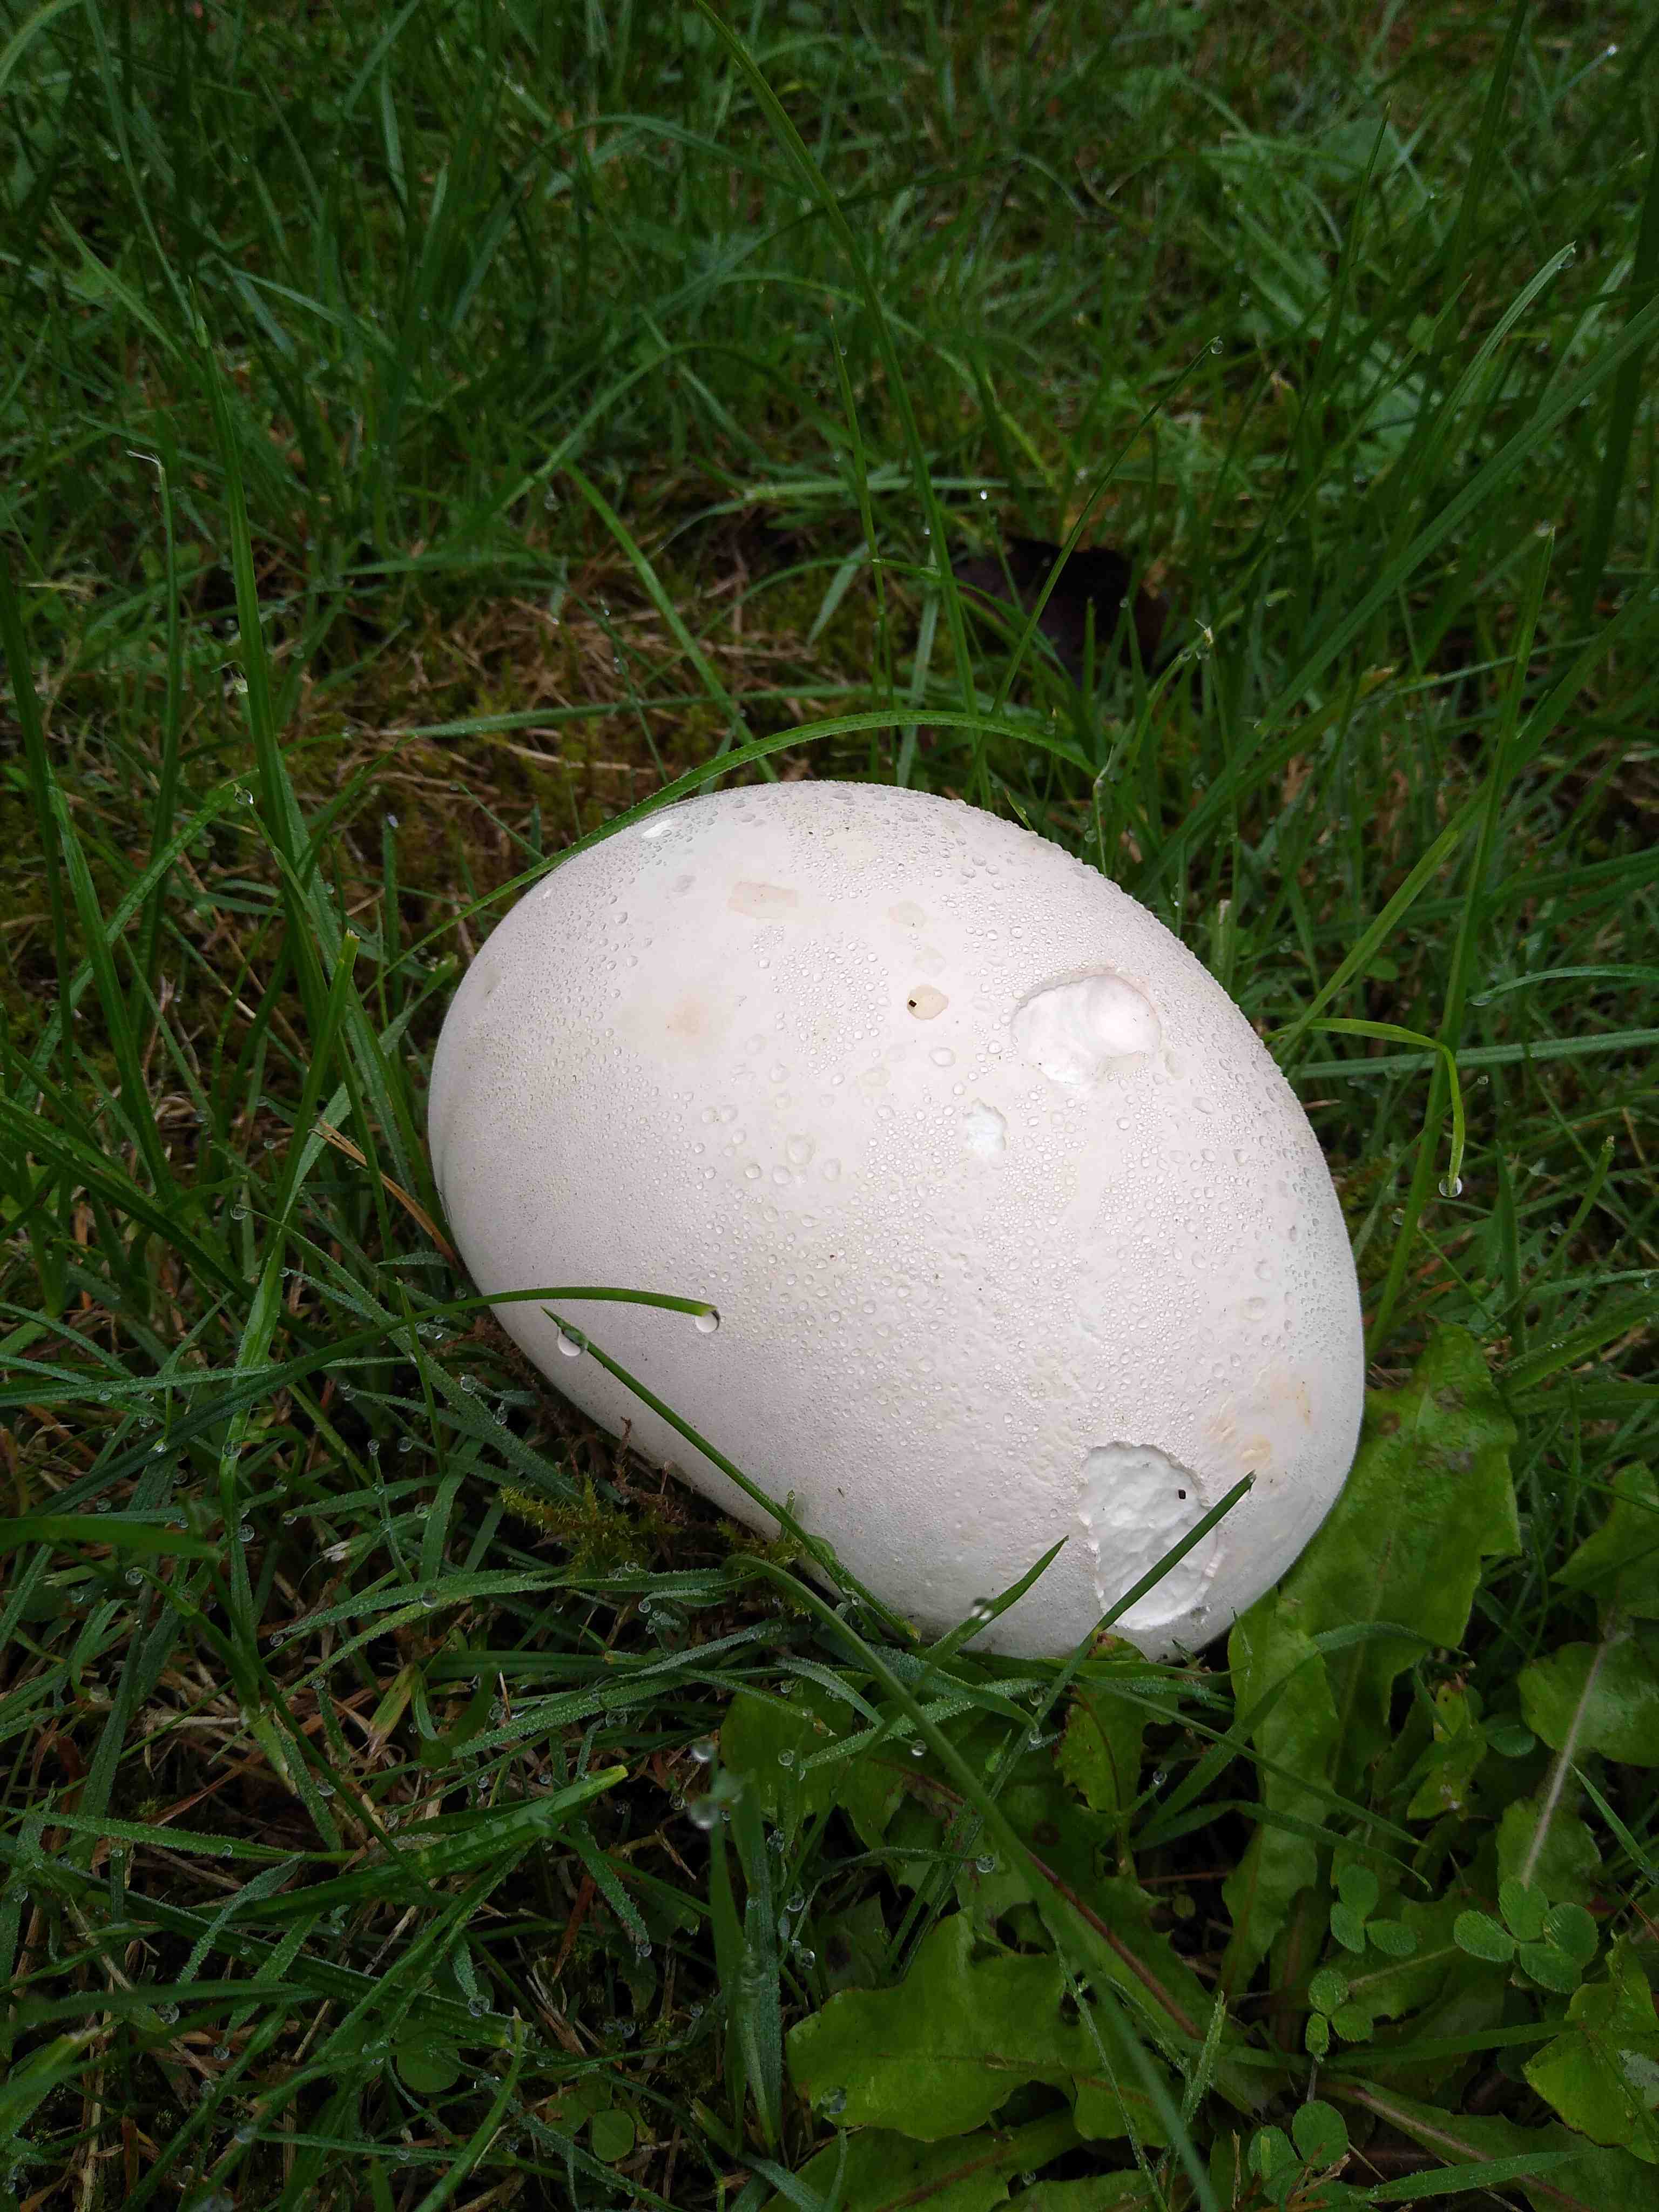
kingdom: Fungi
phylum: Basidiomycota
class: Agaricomycetes
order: Agaricales
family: Lycoperdaceae
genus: Calvatia
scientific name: Calvatia gigantea
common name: kæmpestøvbold
